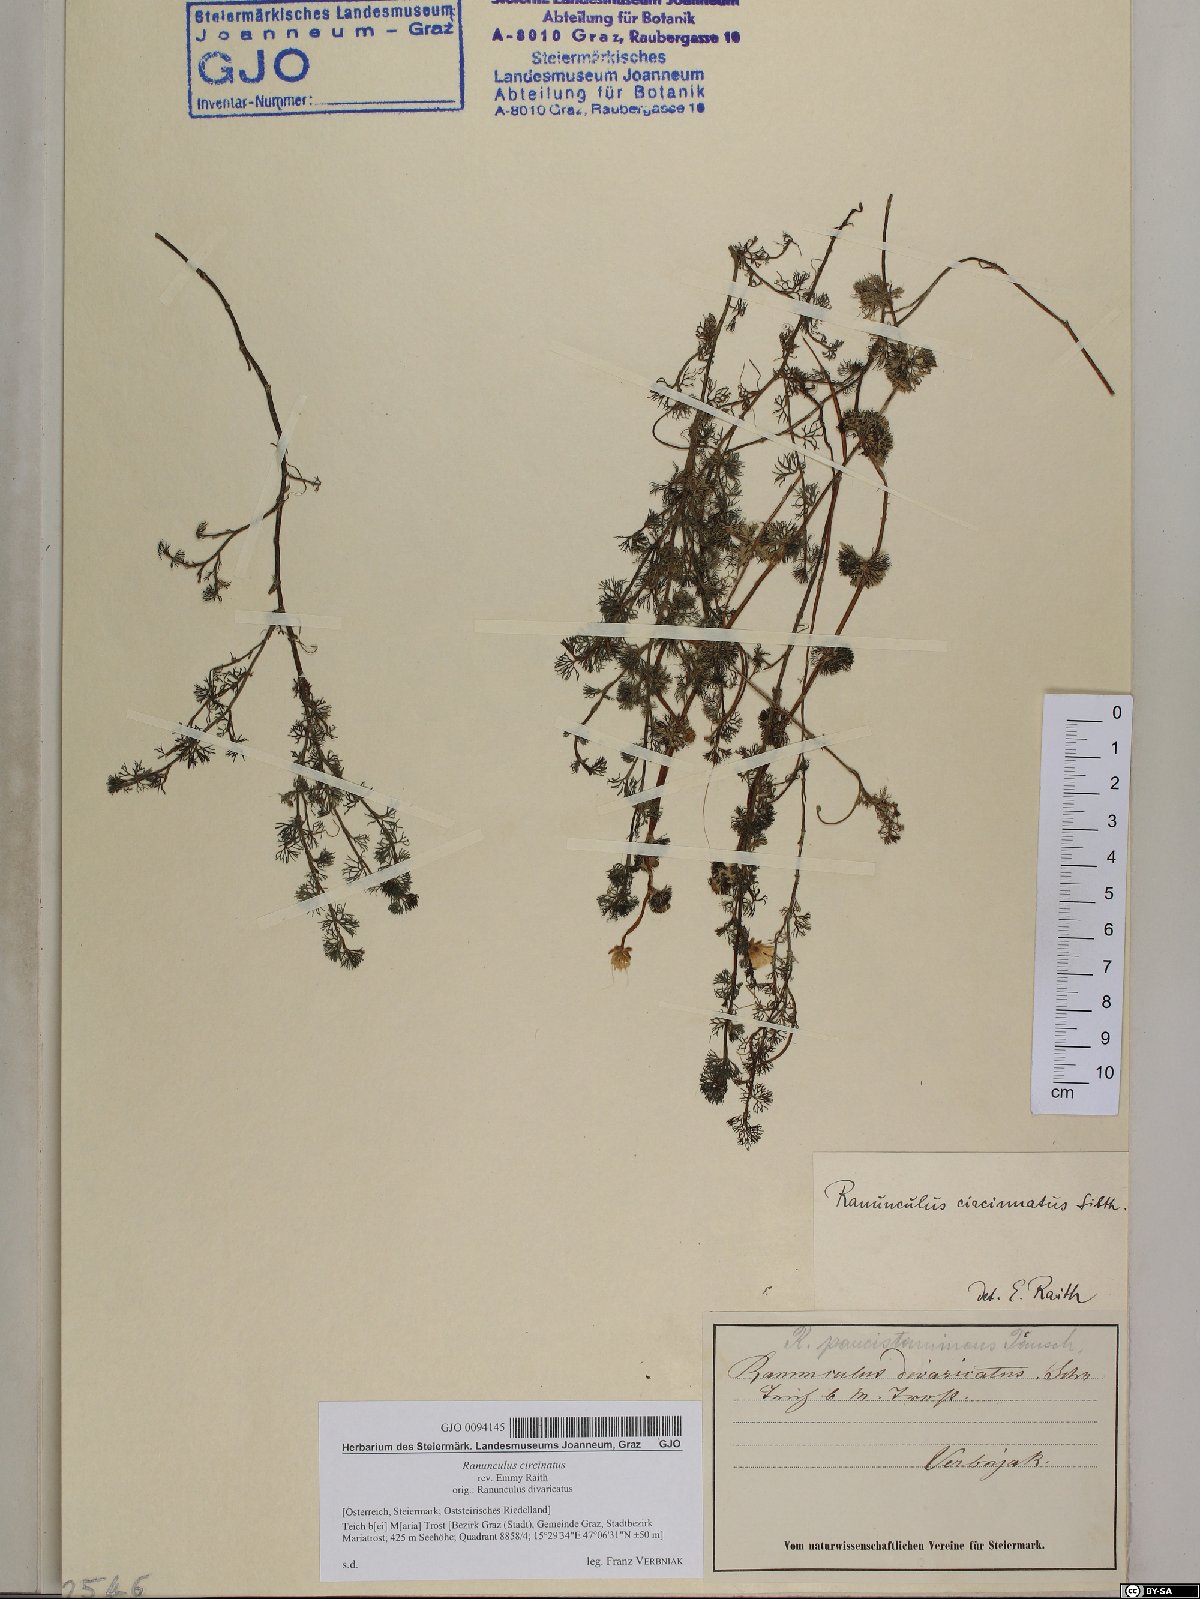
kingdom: Plantae
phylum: Tracheophyta
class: Magnoliopsida
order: Ranunculales
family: Ranunculaceae
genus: Ranunculus
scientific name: Ranunculus circinatus
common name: Fan-leaved water-crowfoot
